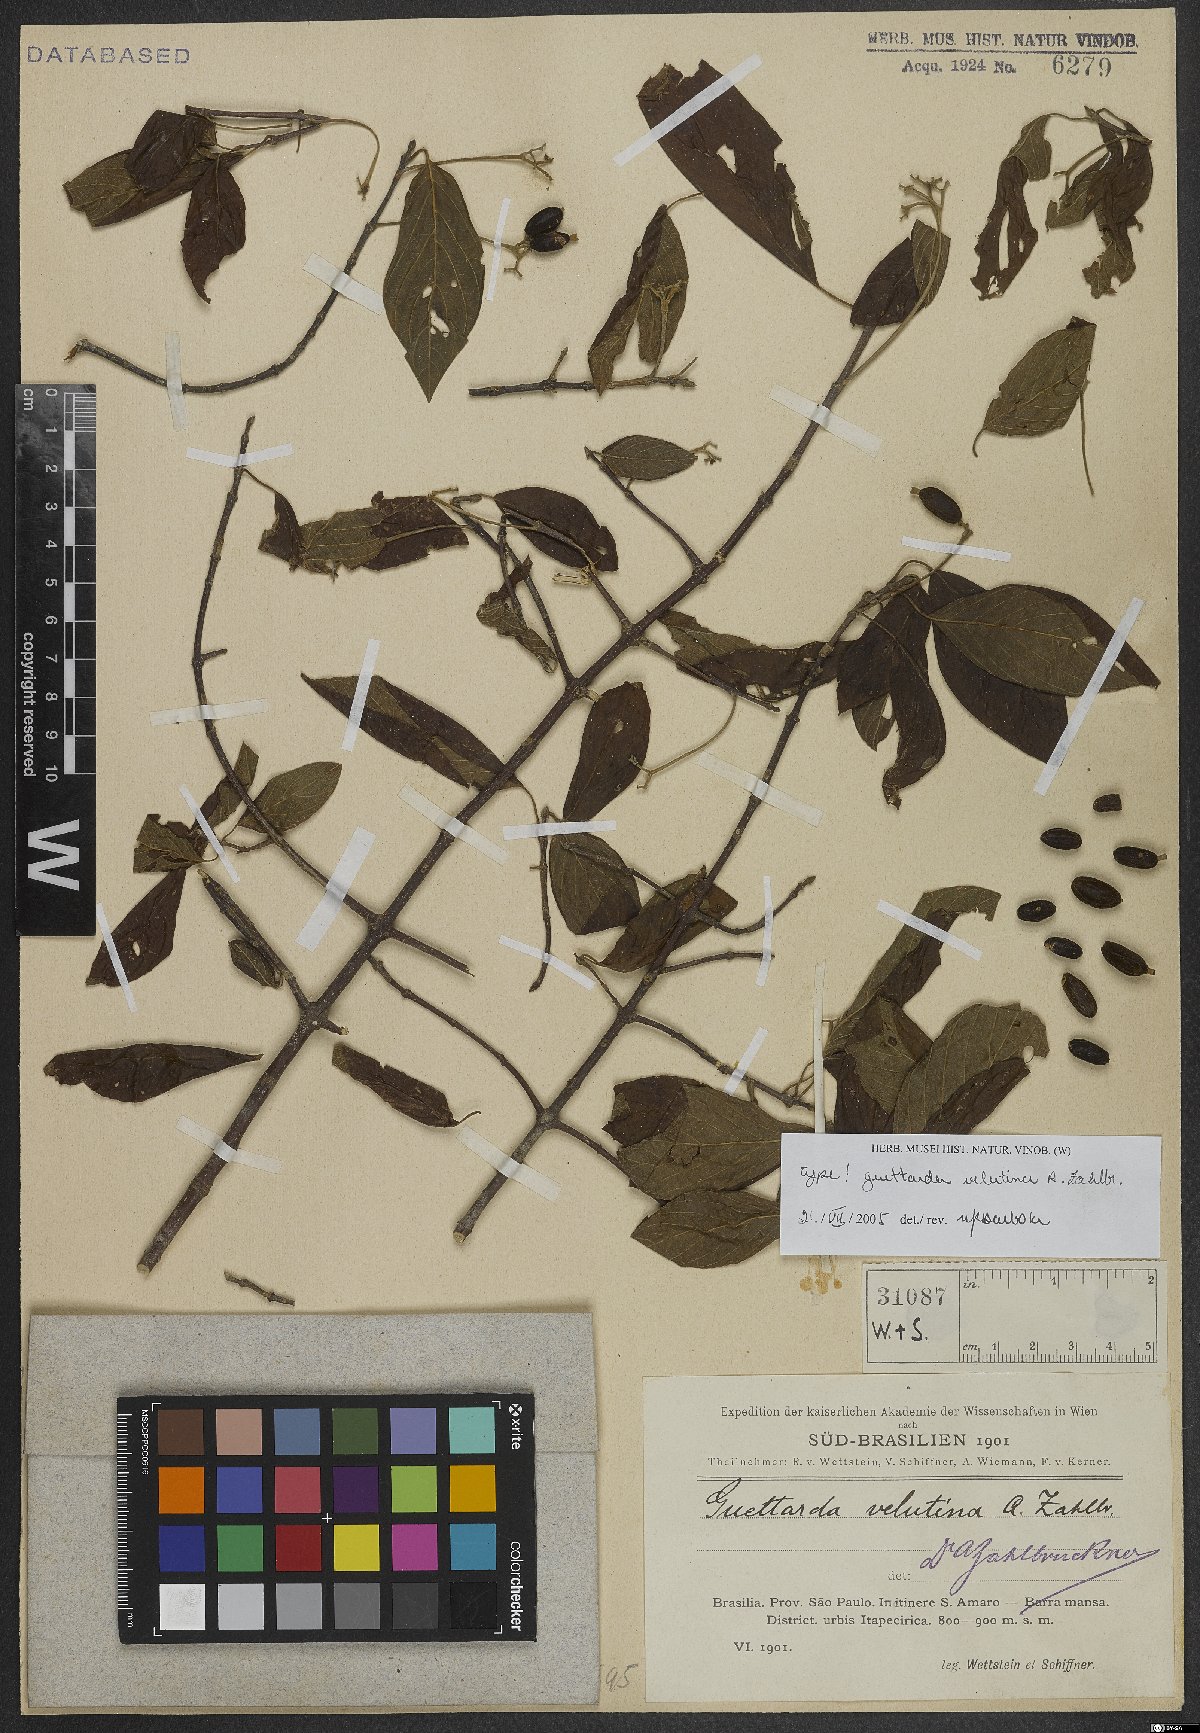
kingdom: Plantae
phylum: Tracheophyta
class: Magnoliopsida
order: Gentianales
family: Rubiaceae
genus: Guettarda
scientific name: Guettarda velutina
